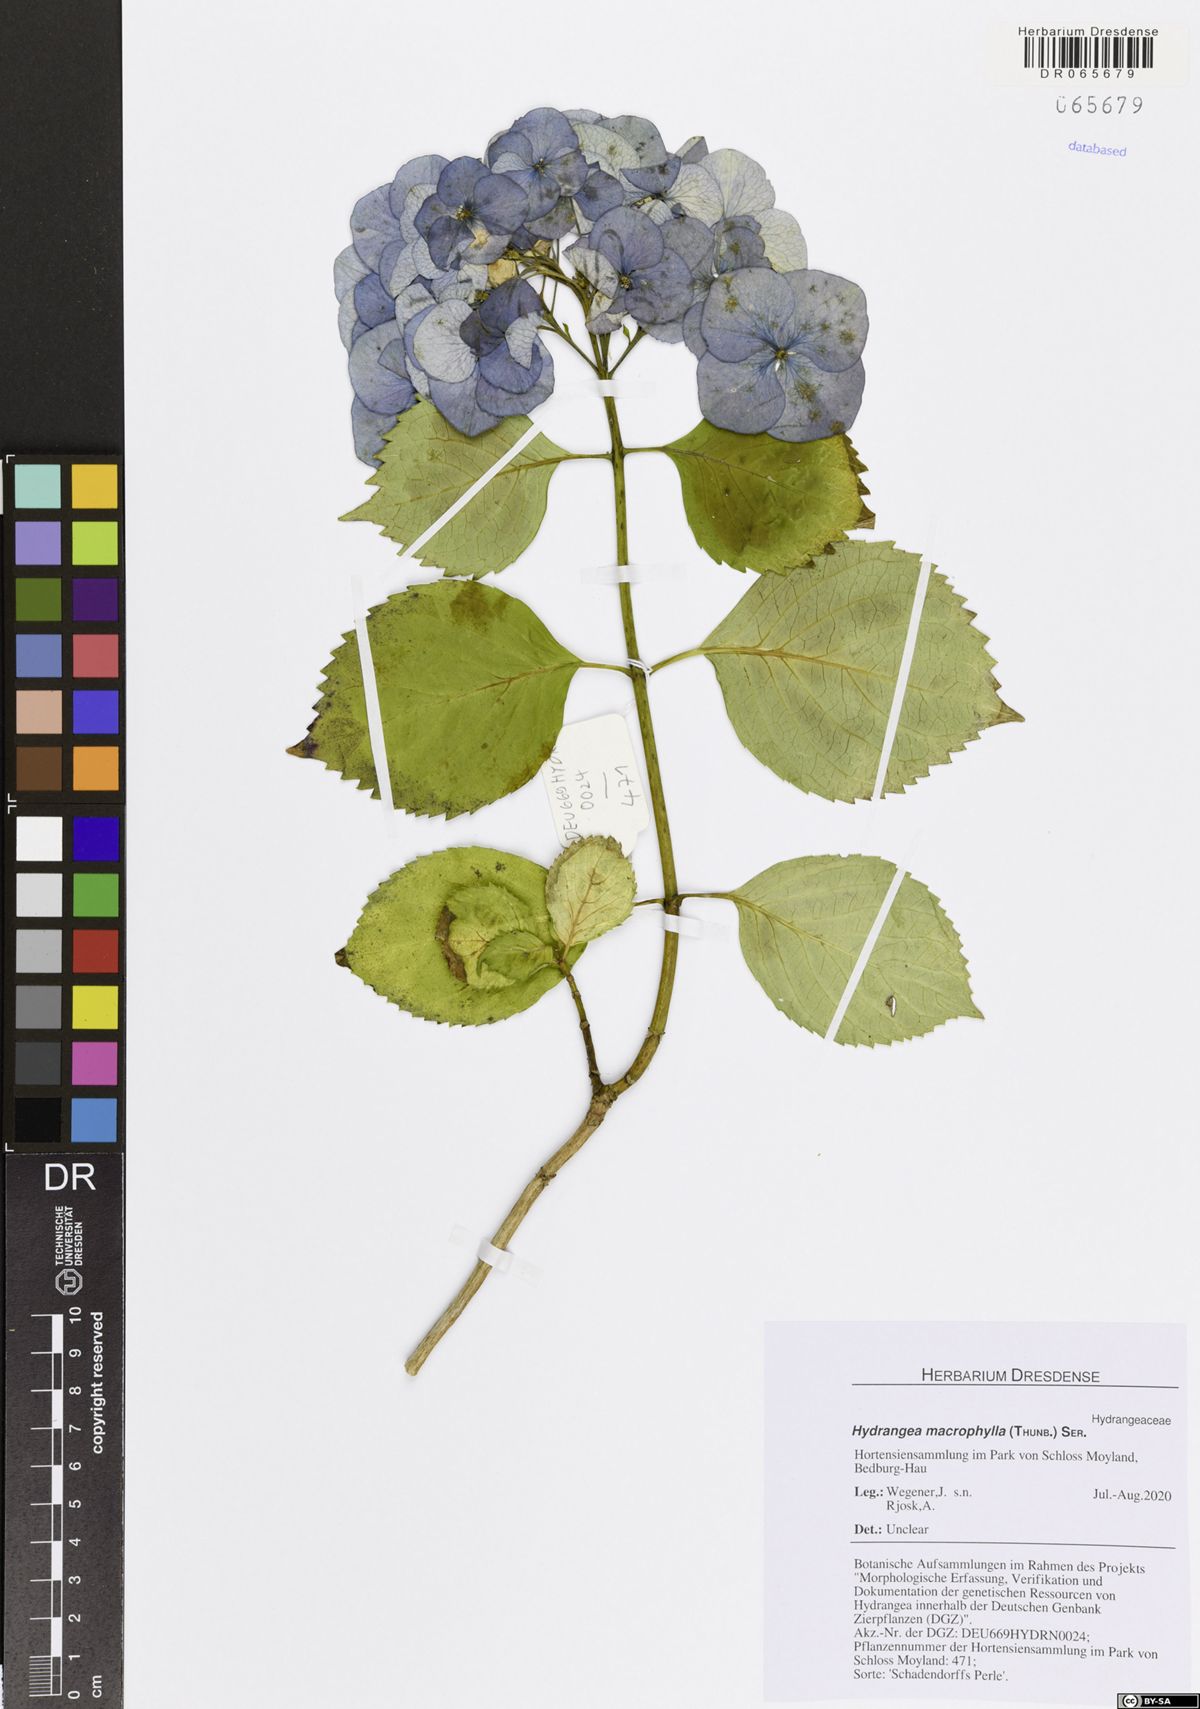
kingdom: Plantae
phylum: Tracheophyta
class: Magnoliopsida
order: Cornales
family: Hydrangeaceae
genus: Hydrangea
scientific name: Hydrangea macrophylla
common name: Hydrangea
